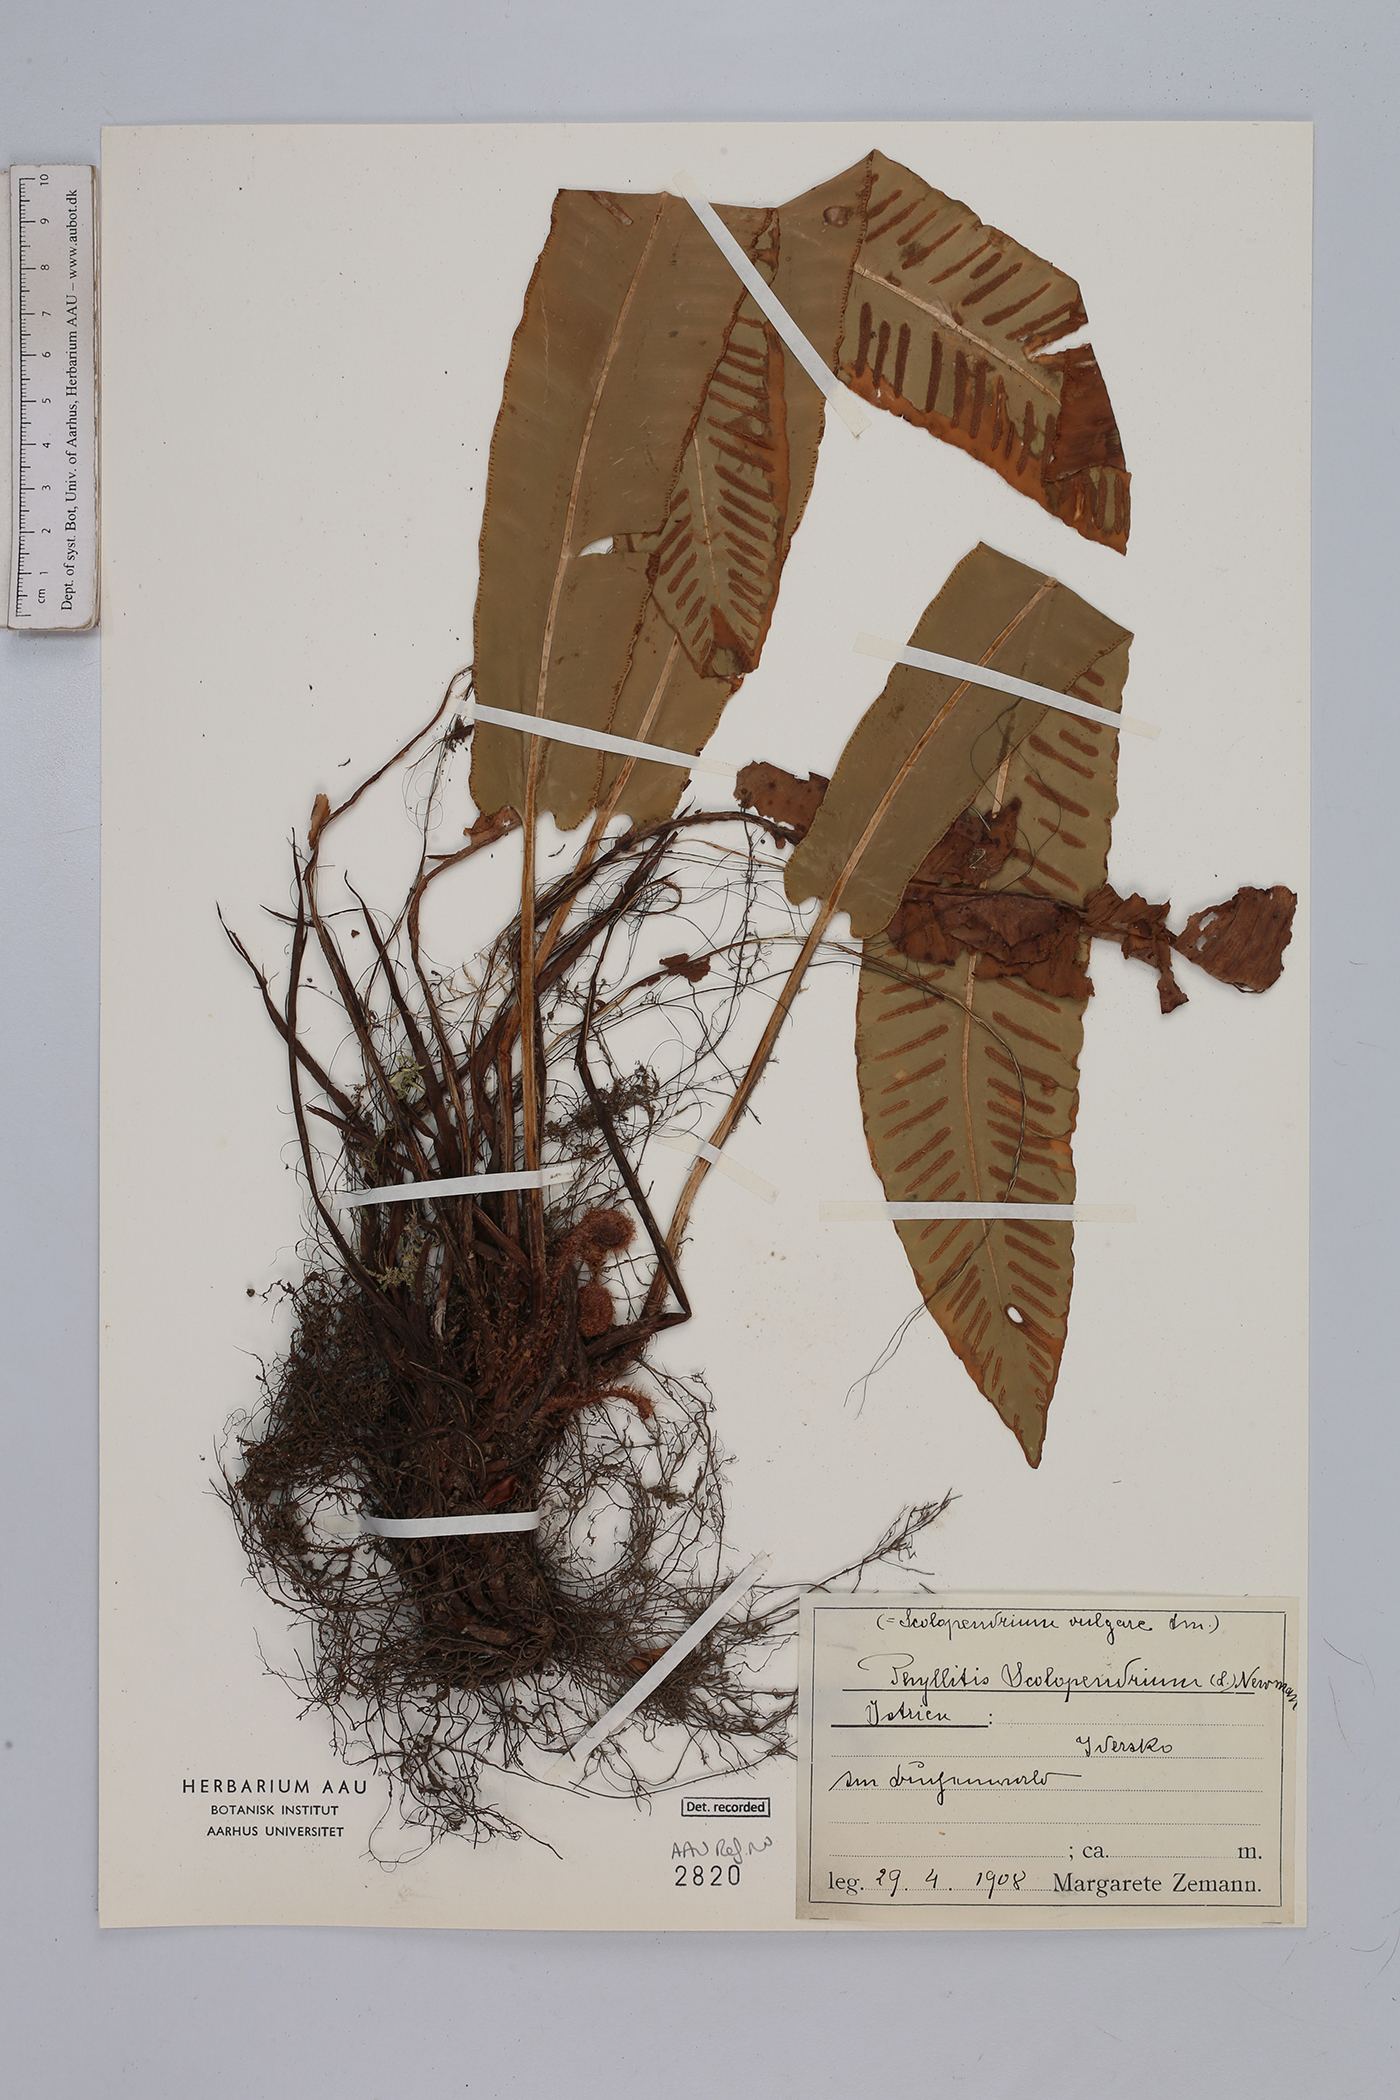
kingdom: Plantae
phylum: Tracheophyta
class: Polypodiopsida
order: Polypodiales
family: Aspleniaceae
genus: Asplenium
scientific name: Asplenium scolopendrium
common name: Hart's-tongue fern
